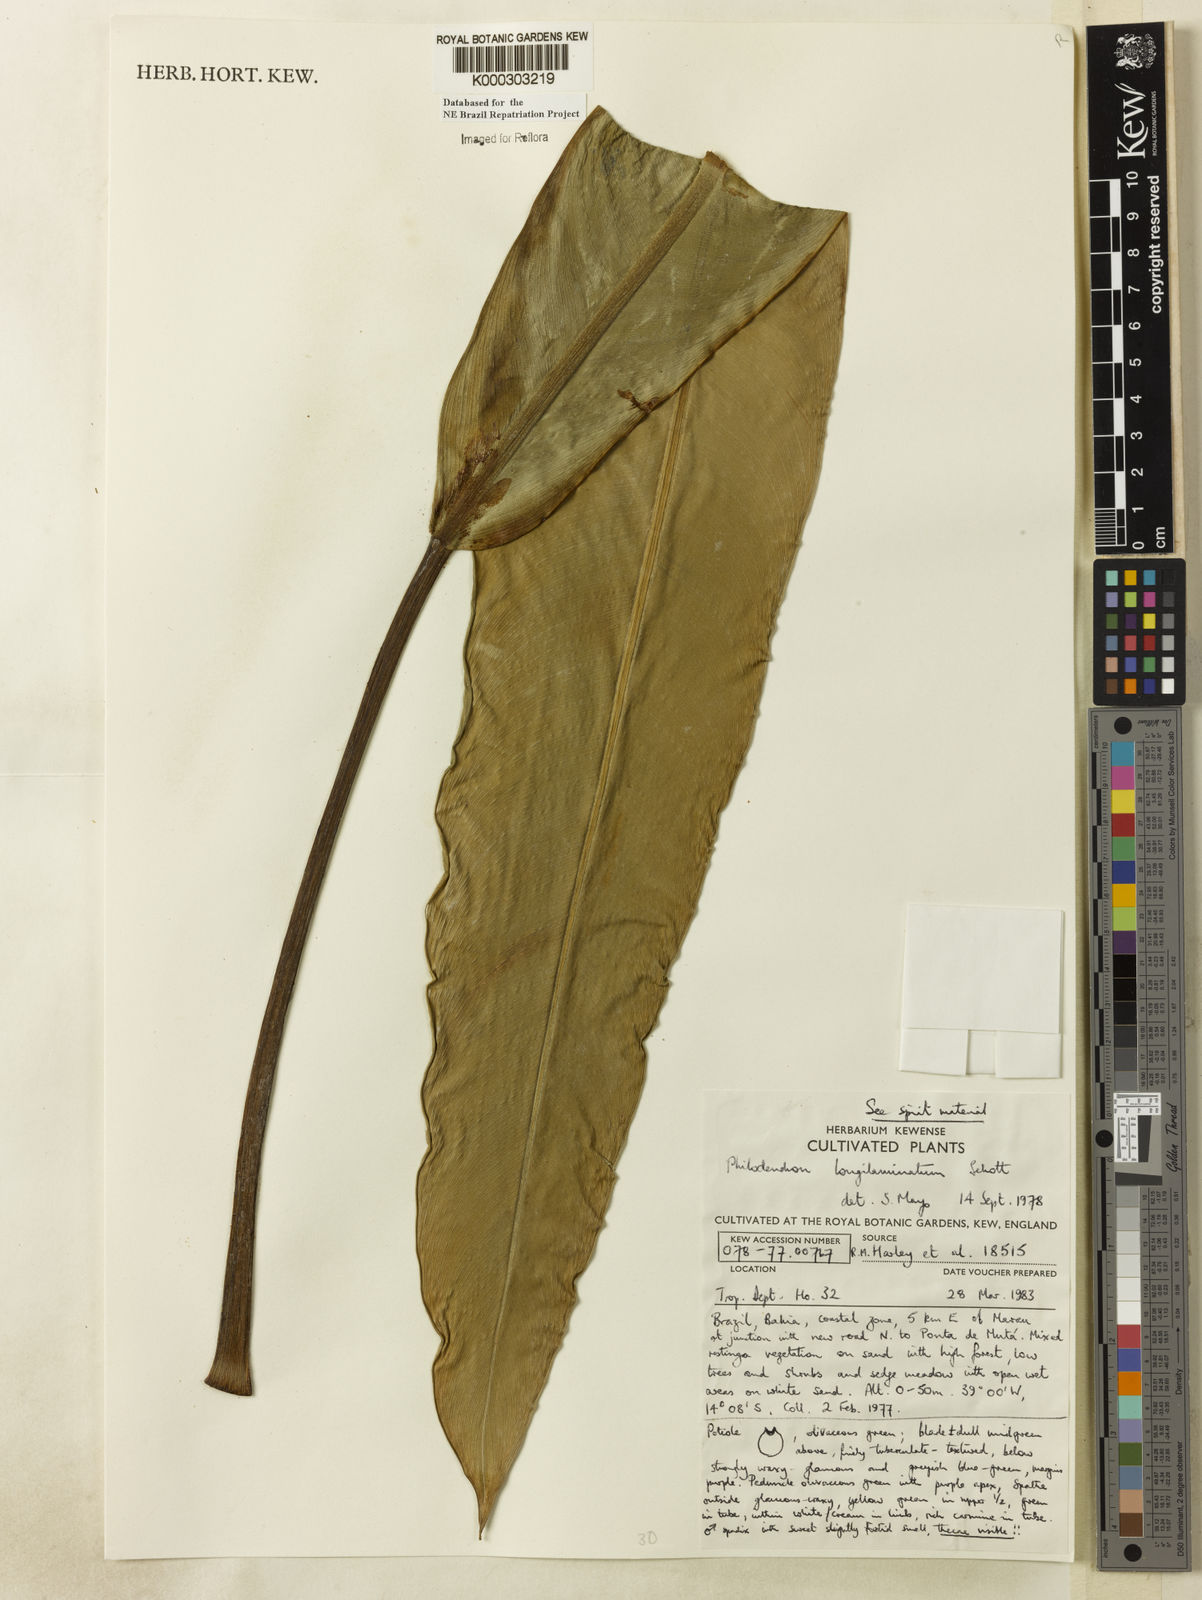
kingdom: Plantae
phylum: Tracheophyta
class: Liliopsida
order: Alismatales
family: Araceae
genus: Philodendron
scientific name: Philodendron longilaminatum
